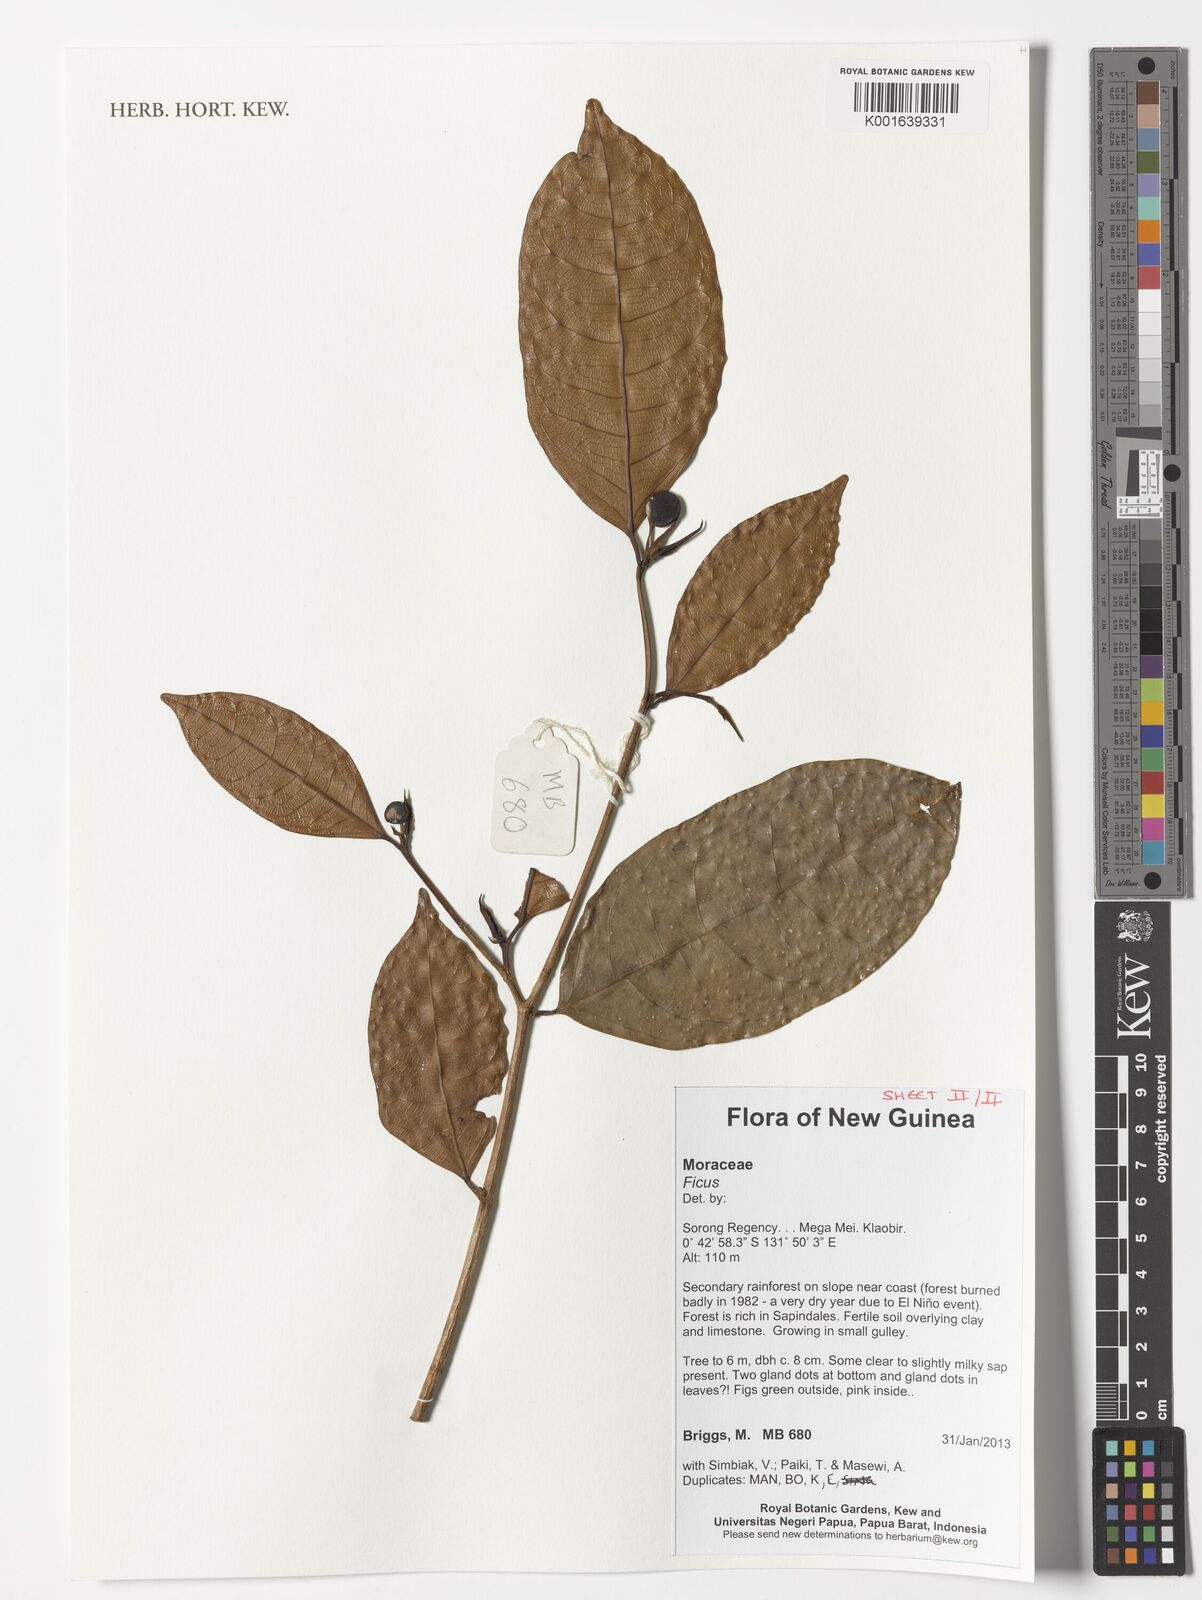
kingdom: Plantae
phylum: Tracheophyta
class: Magnoliopsida
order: Rosales
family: Moraceae
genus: Ficus
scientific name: Ficus
